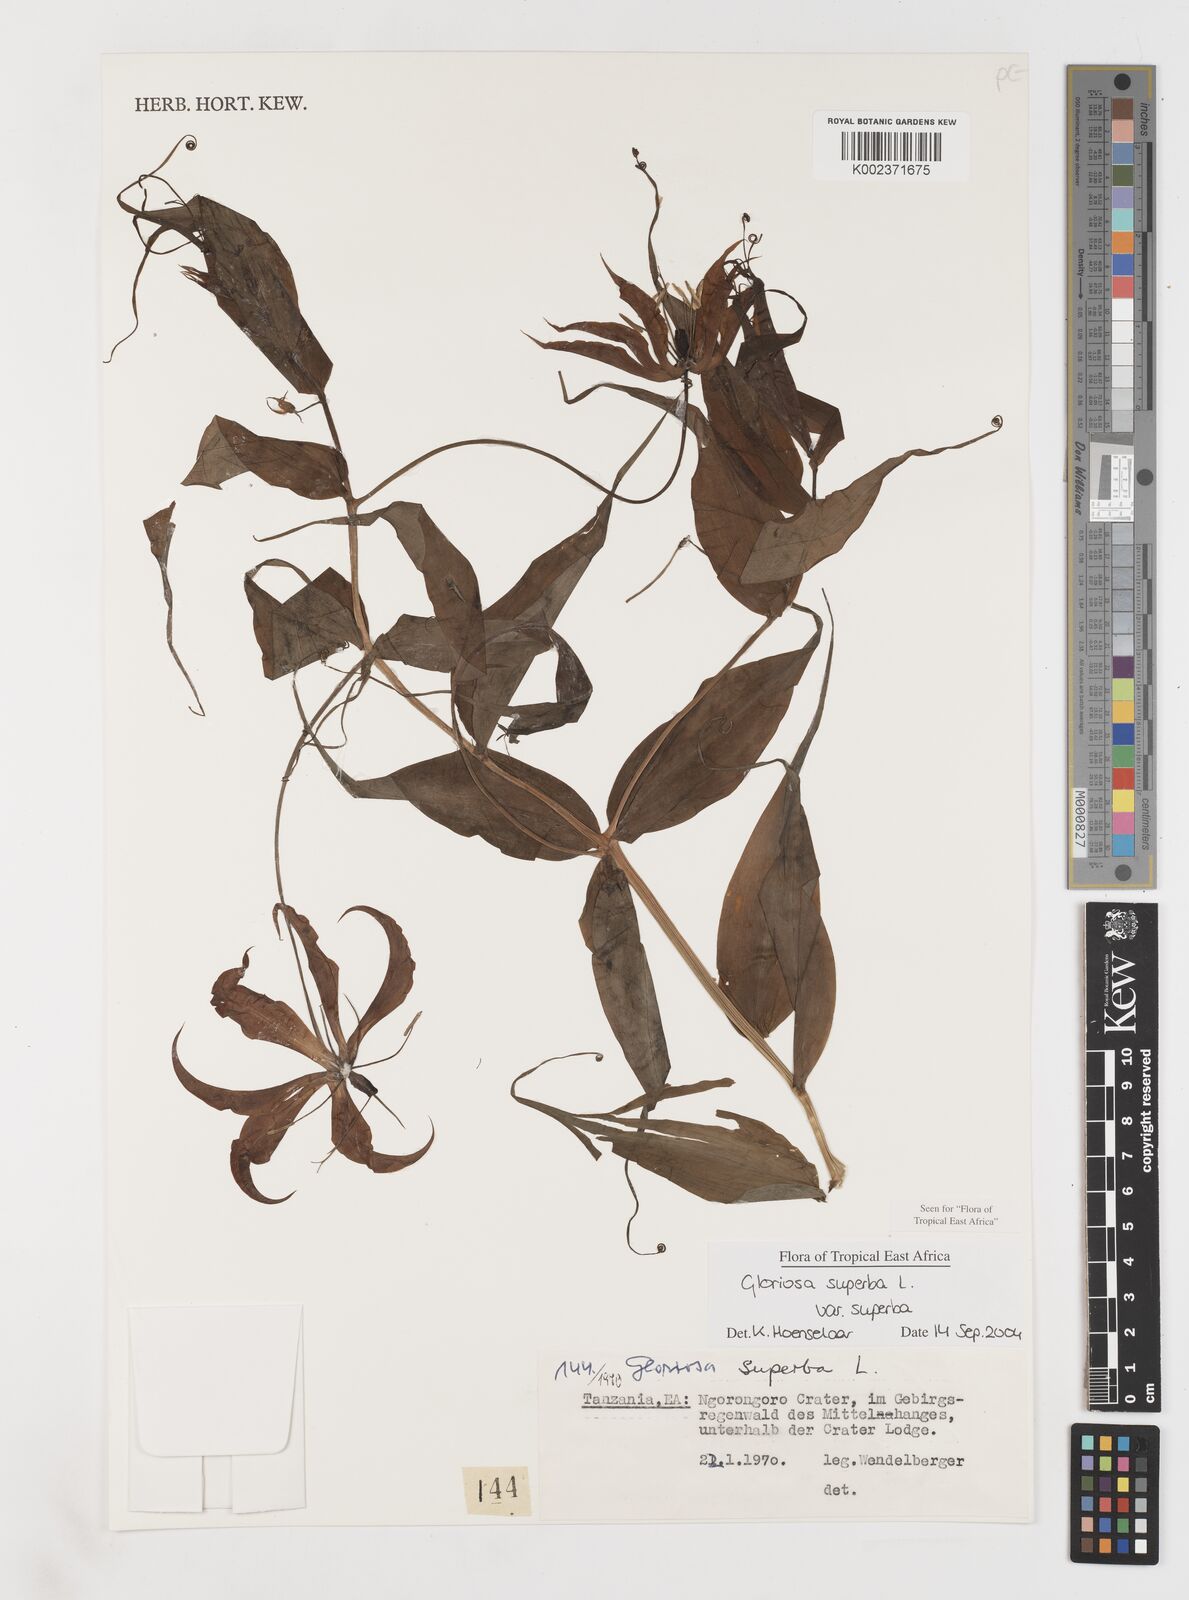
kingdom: Plantae
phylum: Tracheophyta
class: Liliopsida
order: Liliales
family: Colchicaceae
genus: Gloriosa
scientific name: Gloriosa simplex
